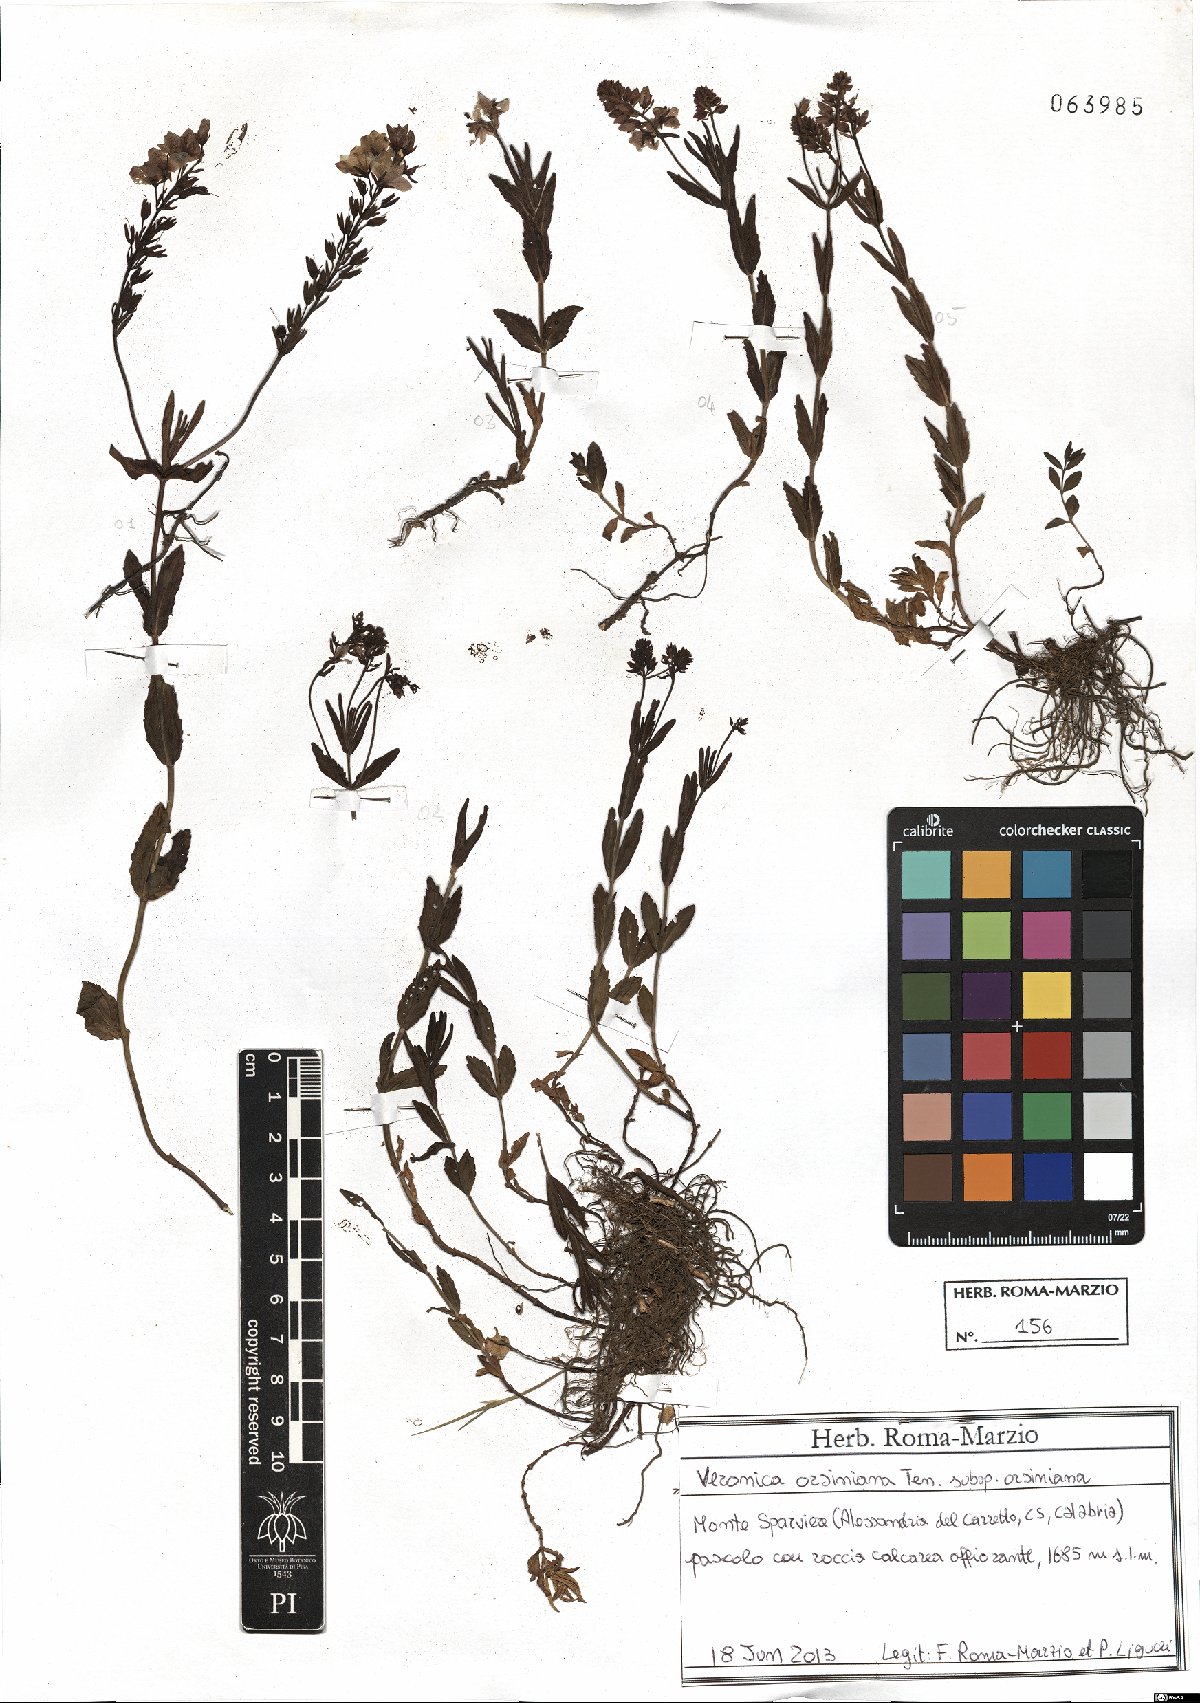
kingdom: Plantae
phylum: Tracheophyta
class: Magnoliopsida
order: Lamiales
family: Plantaginaceae
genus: Veronica
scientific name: Veronica orsiniana
